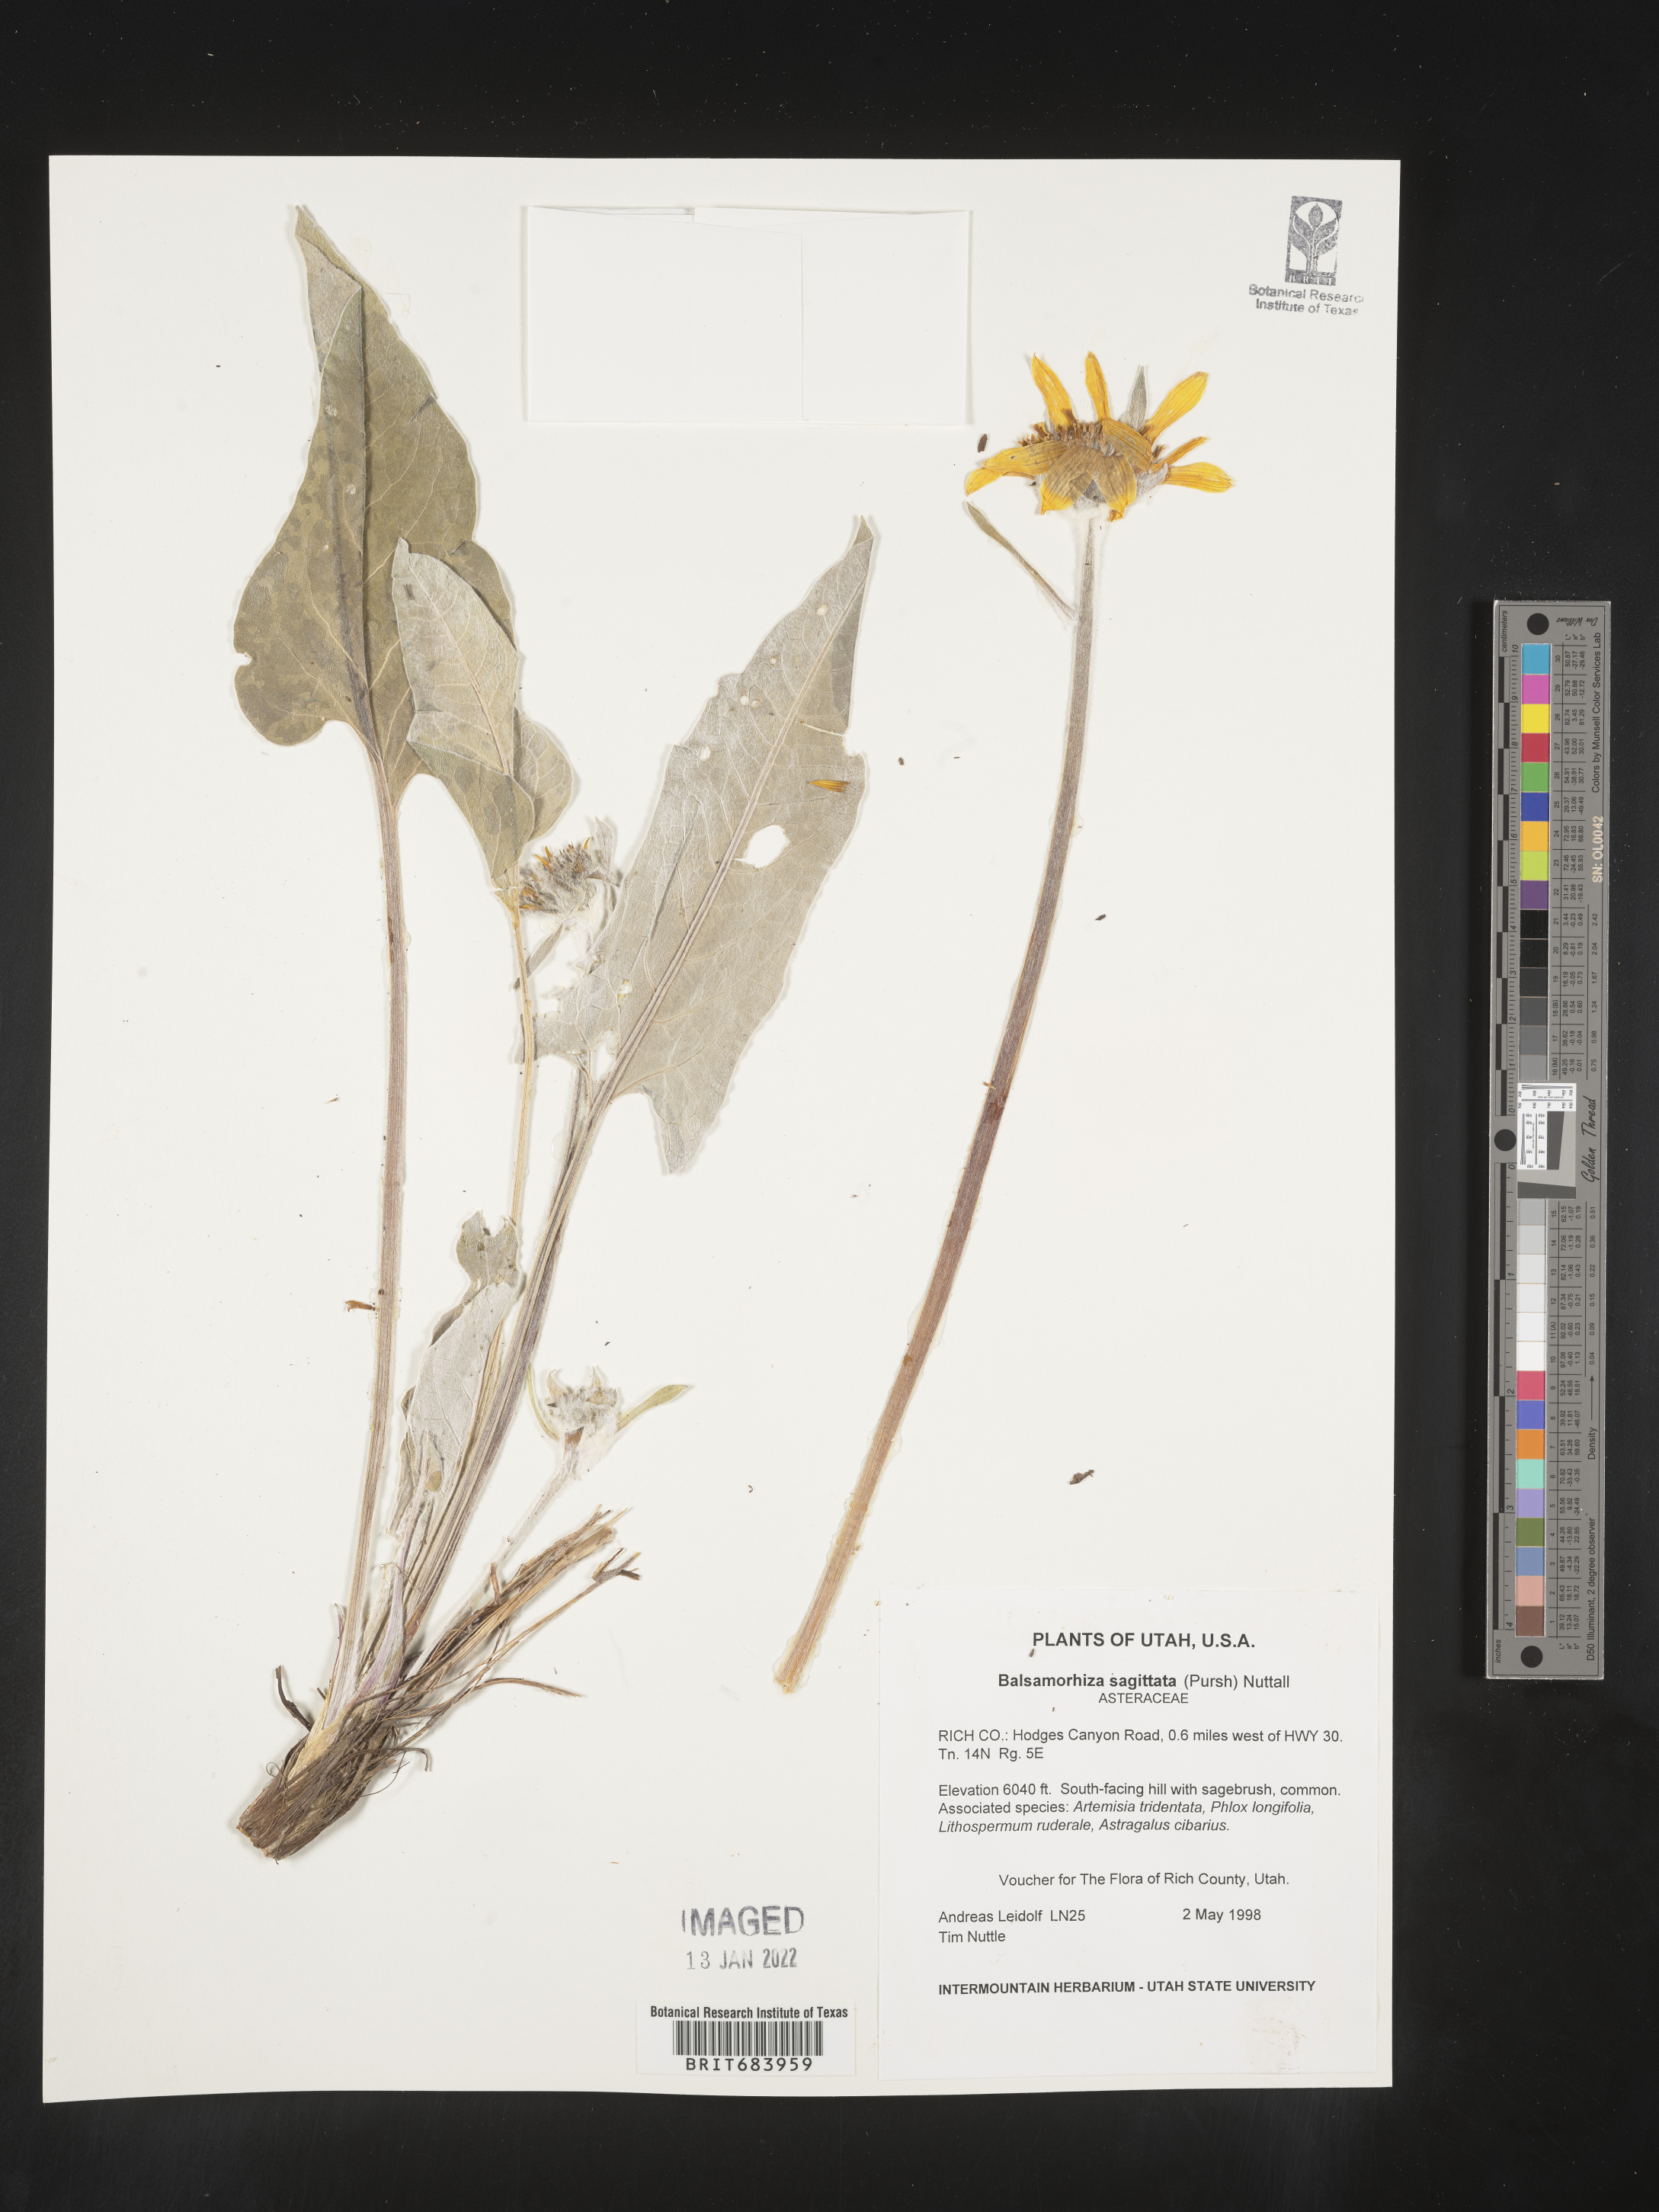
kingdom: Plantae
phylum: Tracheophyta
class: Magnoliopsida
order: Asterales
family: Asteraceae
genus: Wyethia
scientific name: Wyethia sagittata
